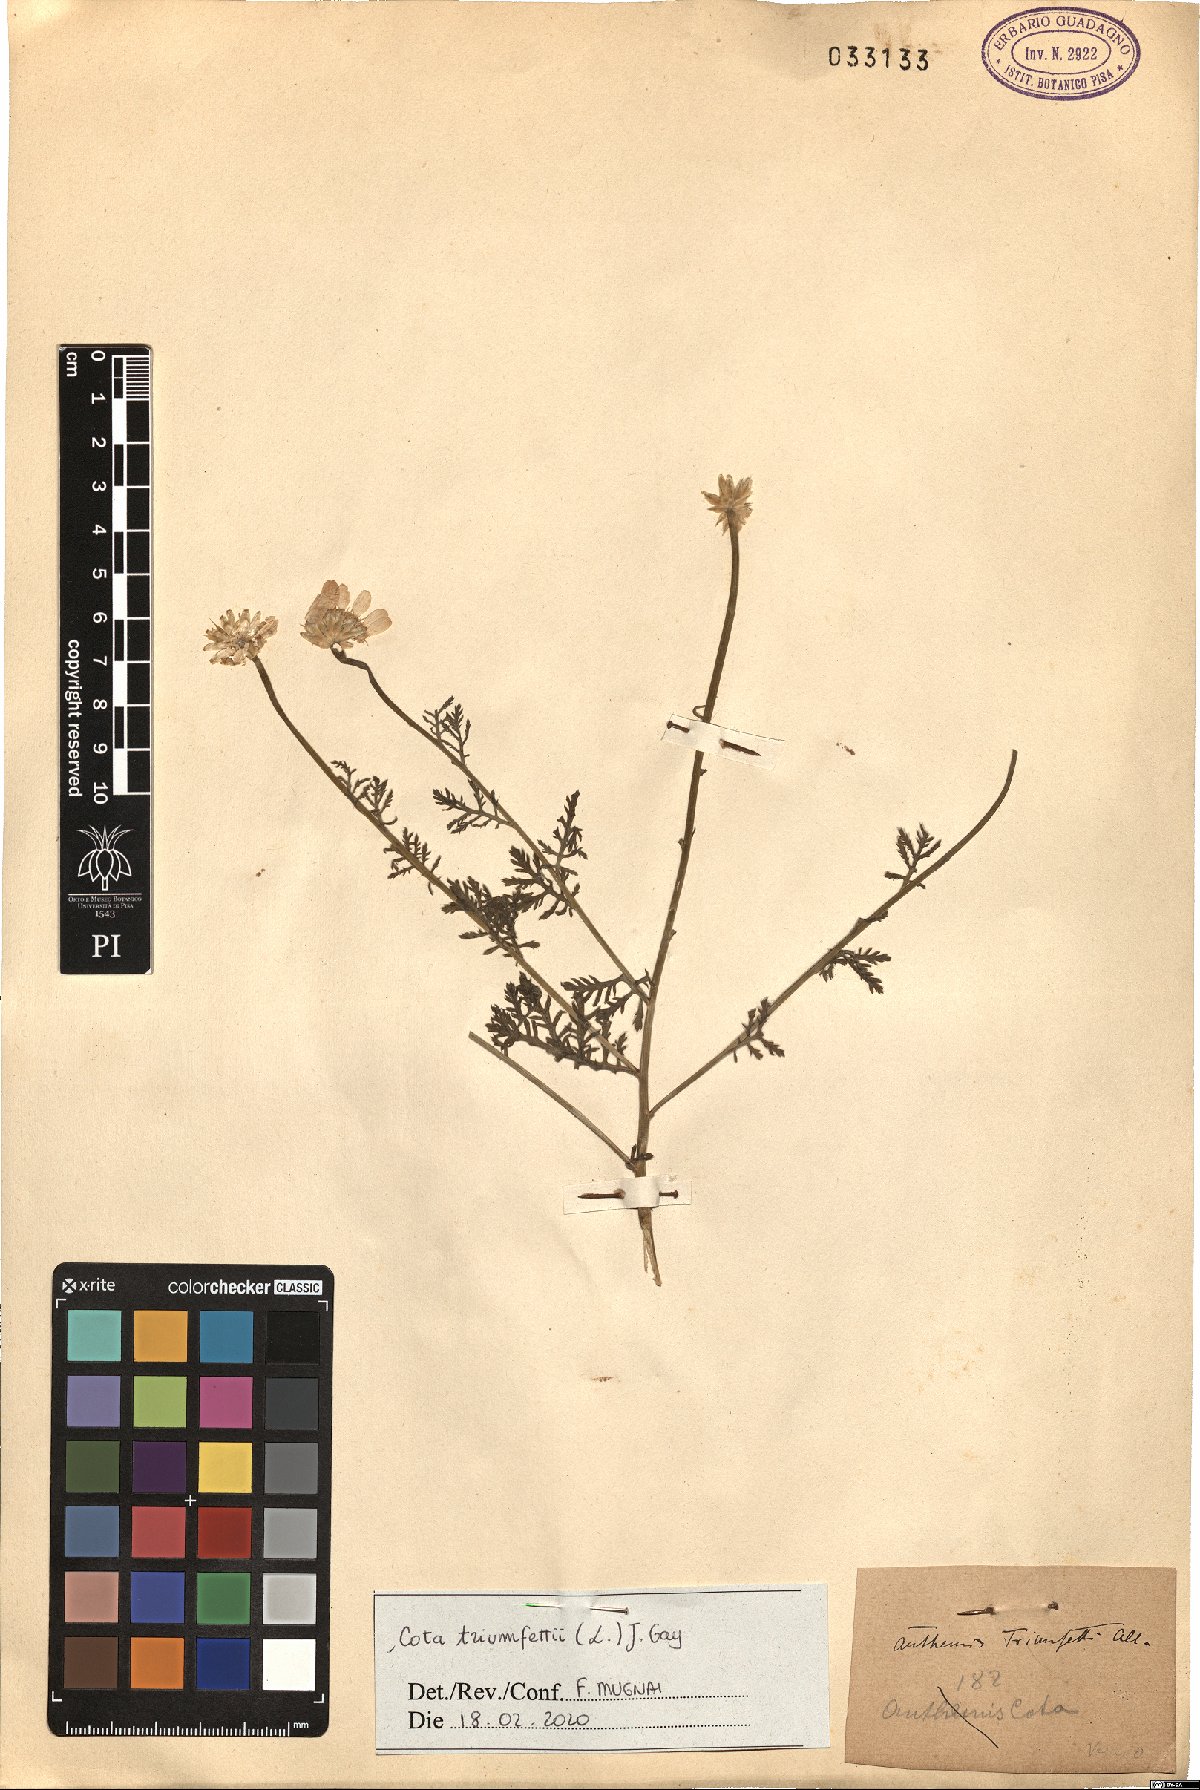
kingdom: Plantae
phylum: Tracheophyta
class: Magnoliopsida
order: Asterales
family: Asteraceae
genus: Cota
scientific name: Cota triumfetti
